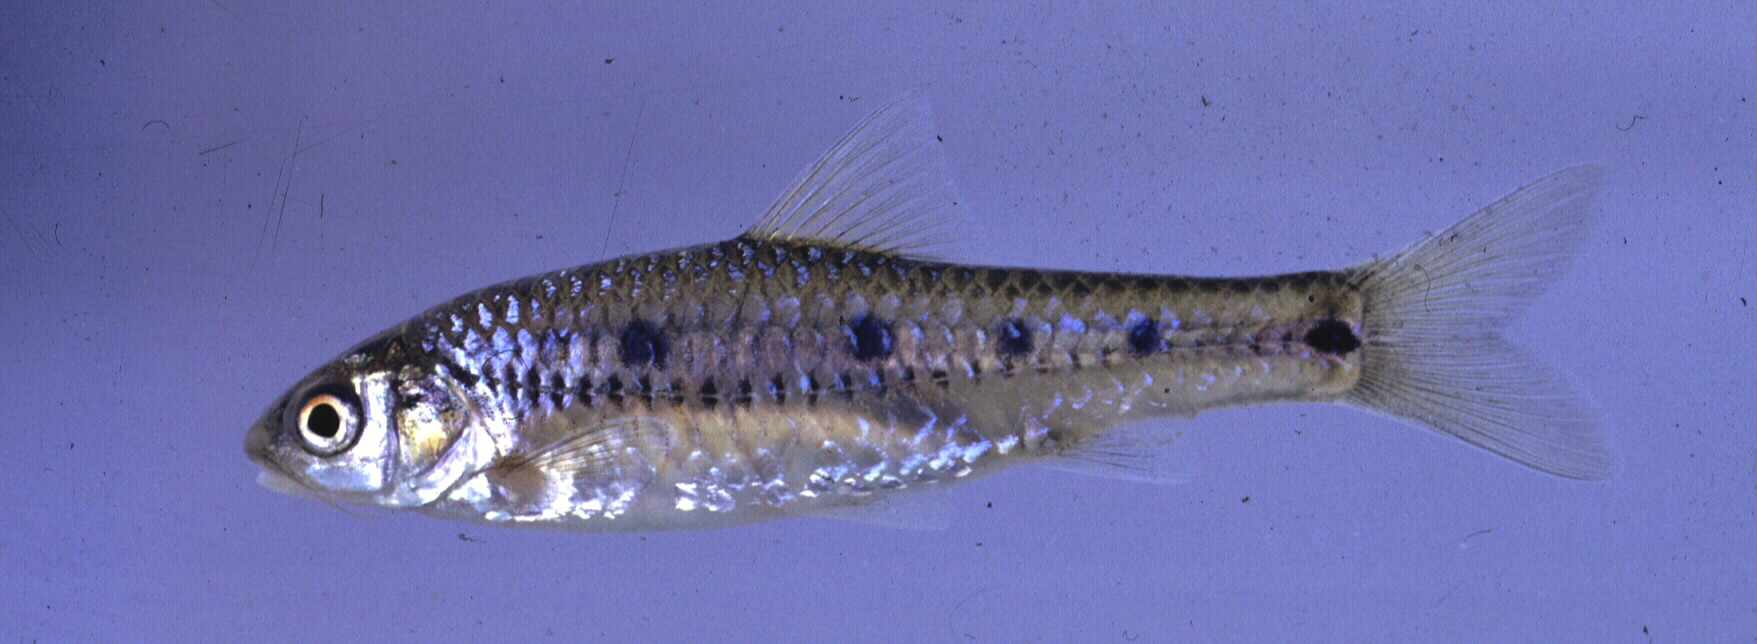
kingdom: Animalia
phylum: Chordata
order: Cypriniformes
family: Cyprinidae
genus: Enteromius
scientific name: Enteromius lineomaculatus
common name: Line-spotted barb
